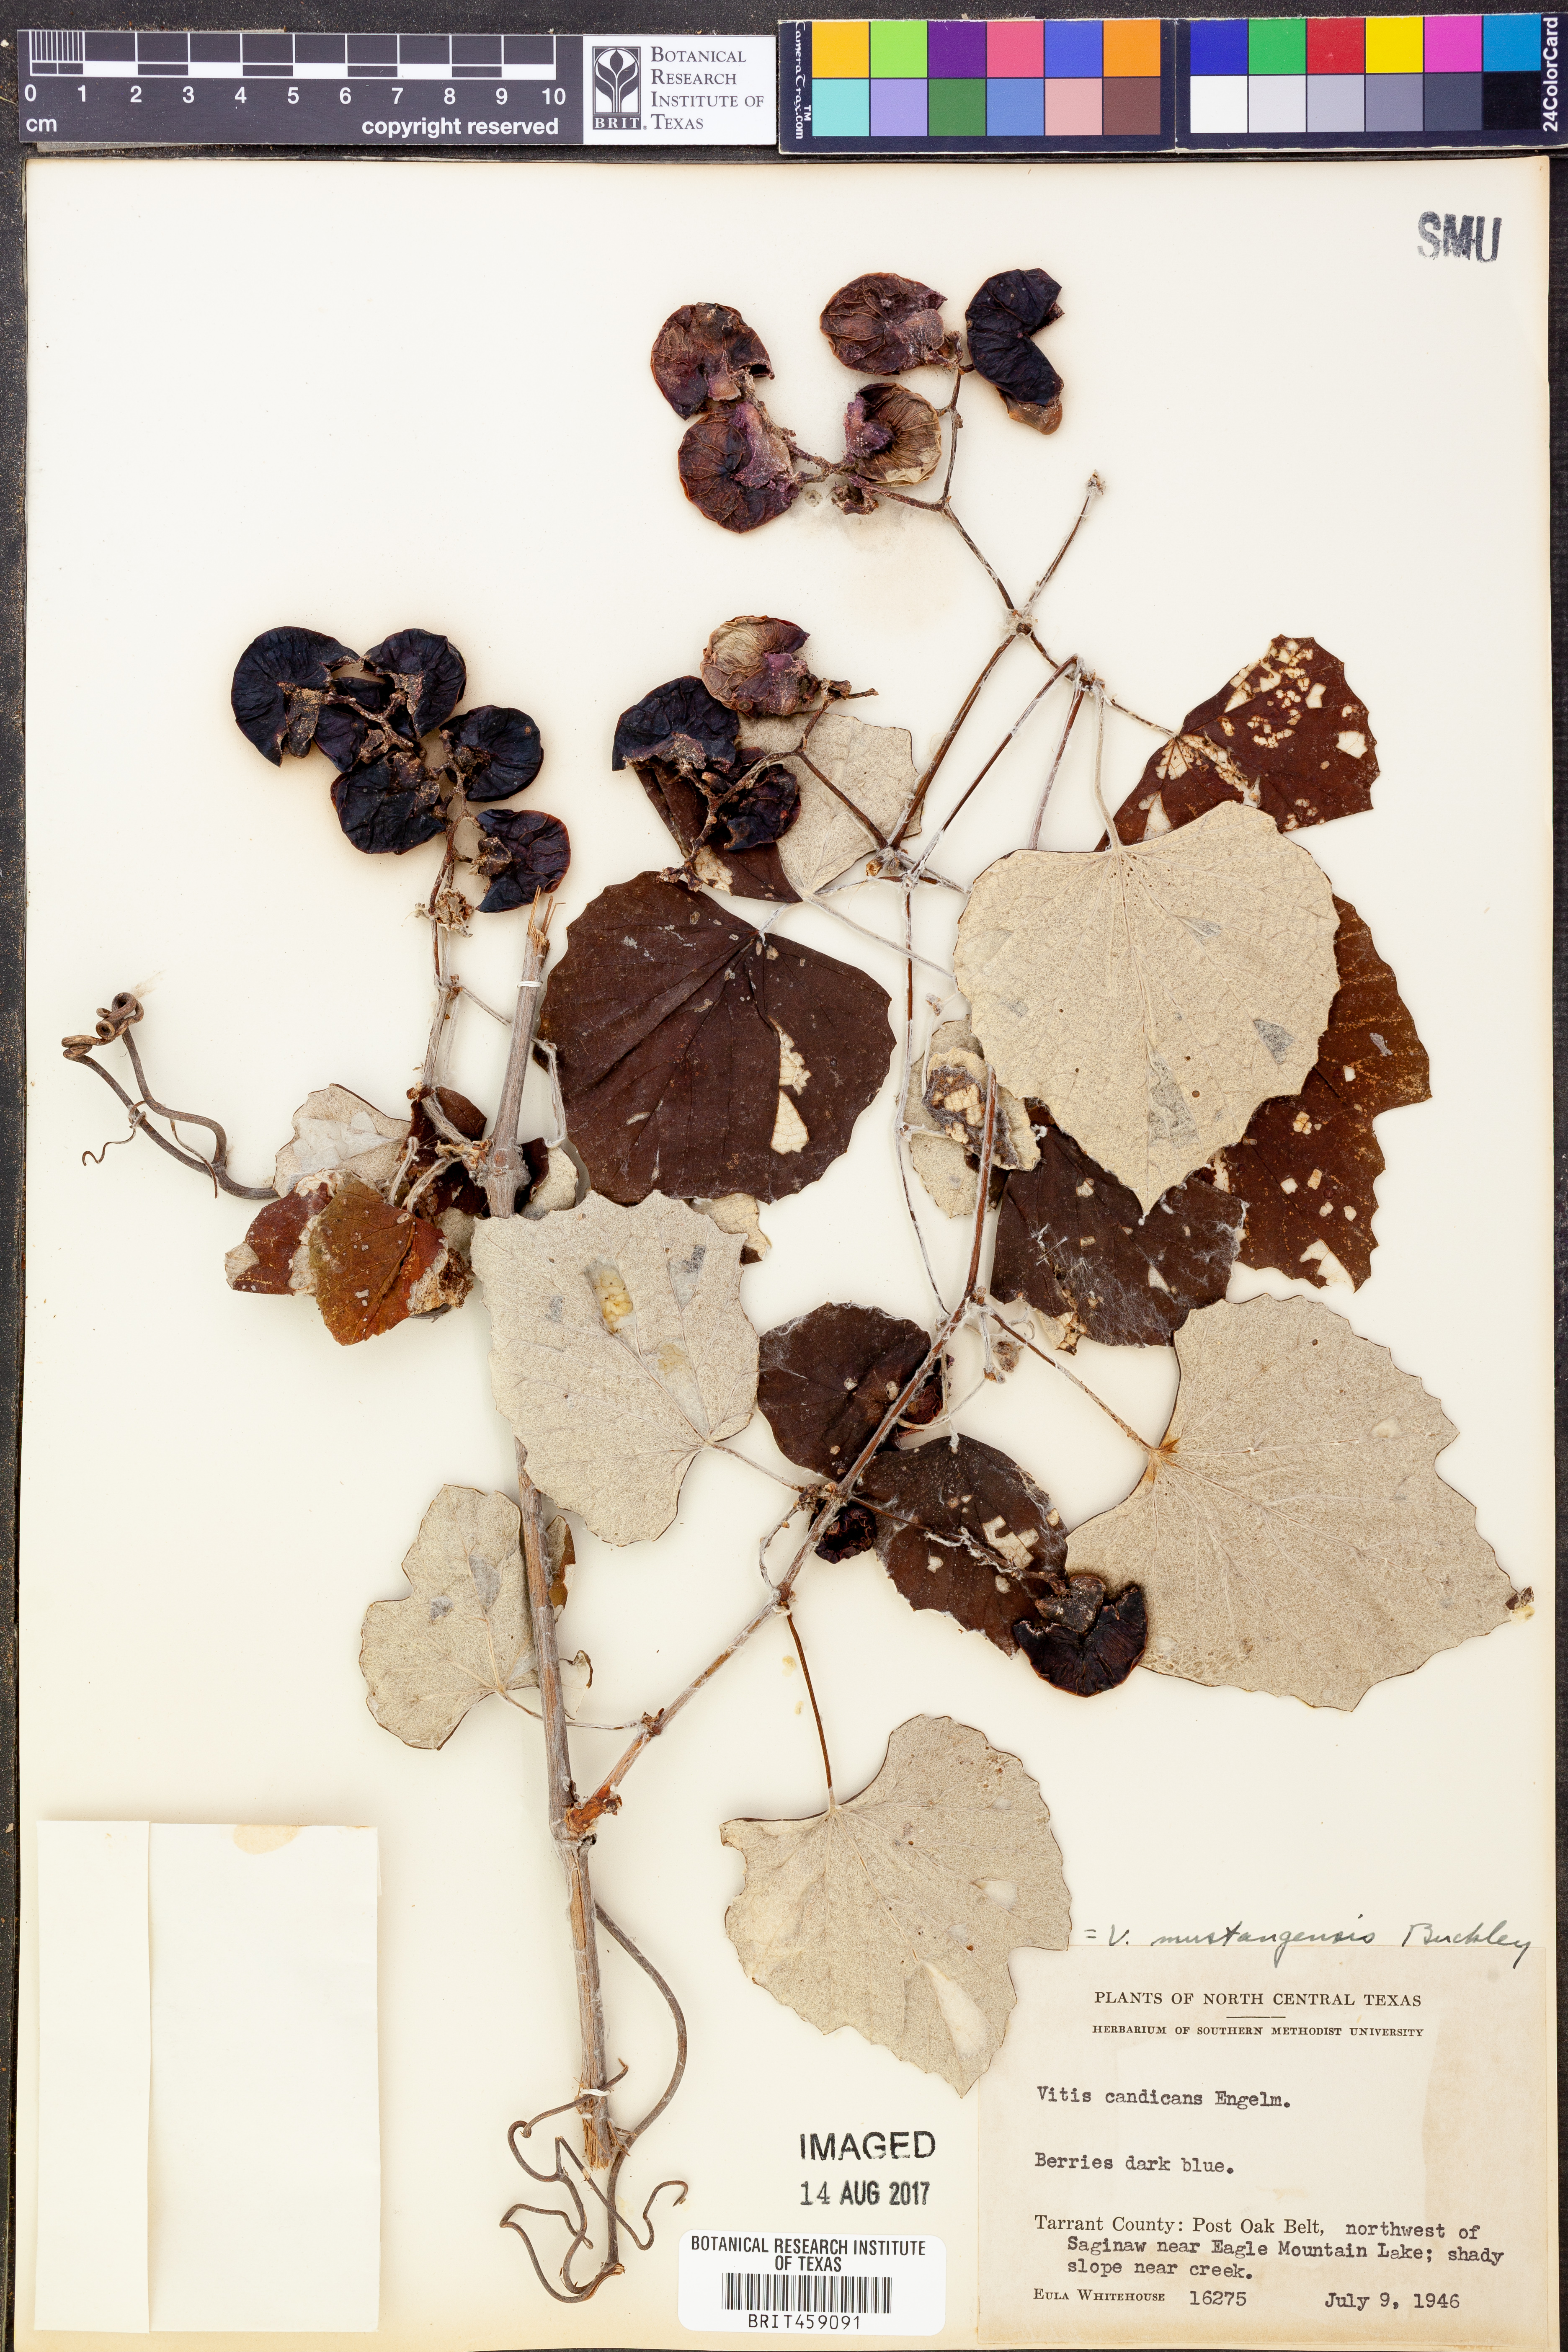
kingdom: Plantae
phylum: Tracheophyta
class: Magnoliopsida
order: Vitales
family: Vitaceae
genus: Vitis
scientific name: Vitis mustangensis
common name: Mustang grape
